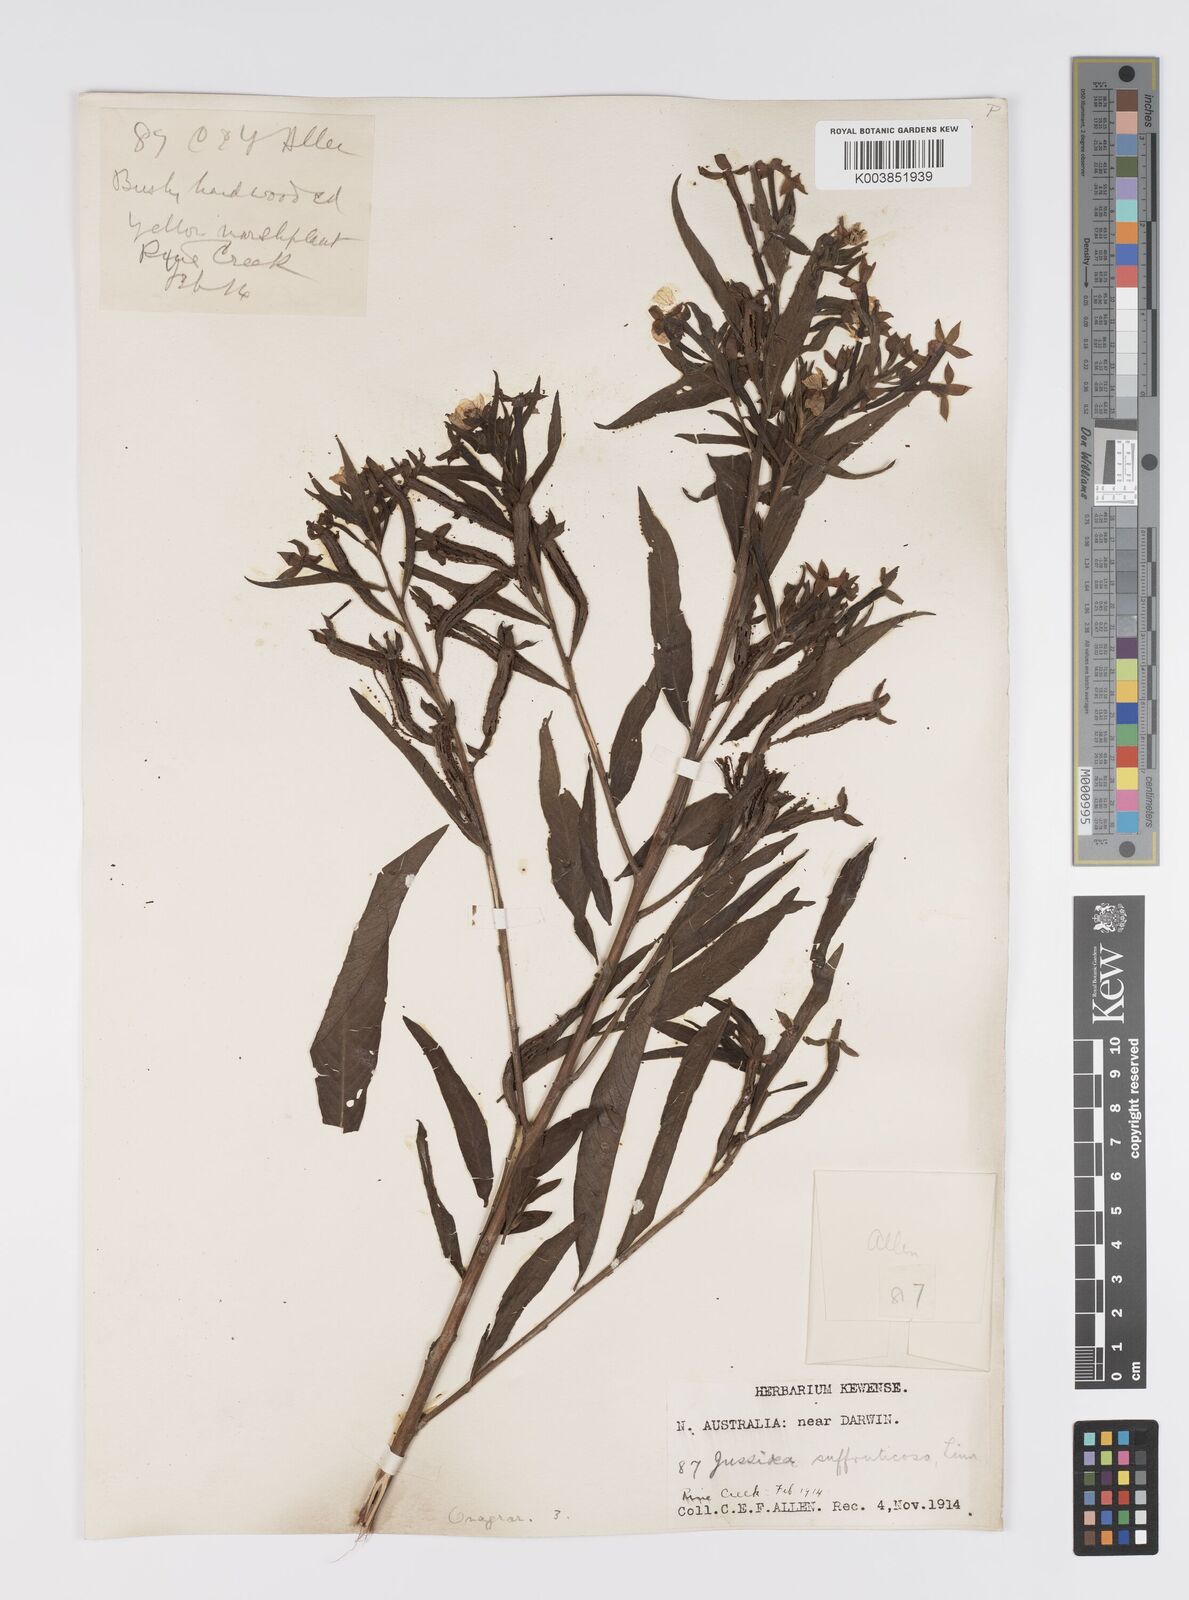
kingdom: Plantae
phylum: Tracheophyta
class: Magnoliopsida
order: Myrtales
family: Onagraceae
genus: Ludwigia
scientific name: Ludwigia octovalvis
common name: Water-primrose
